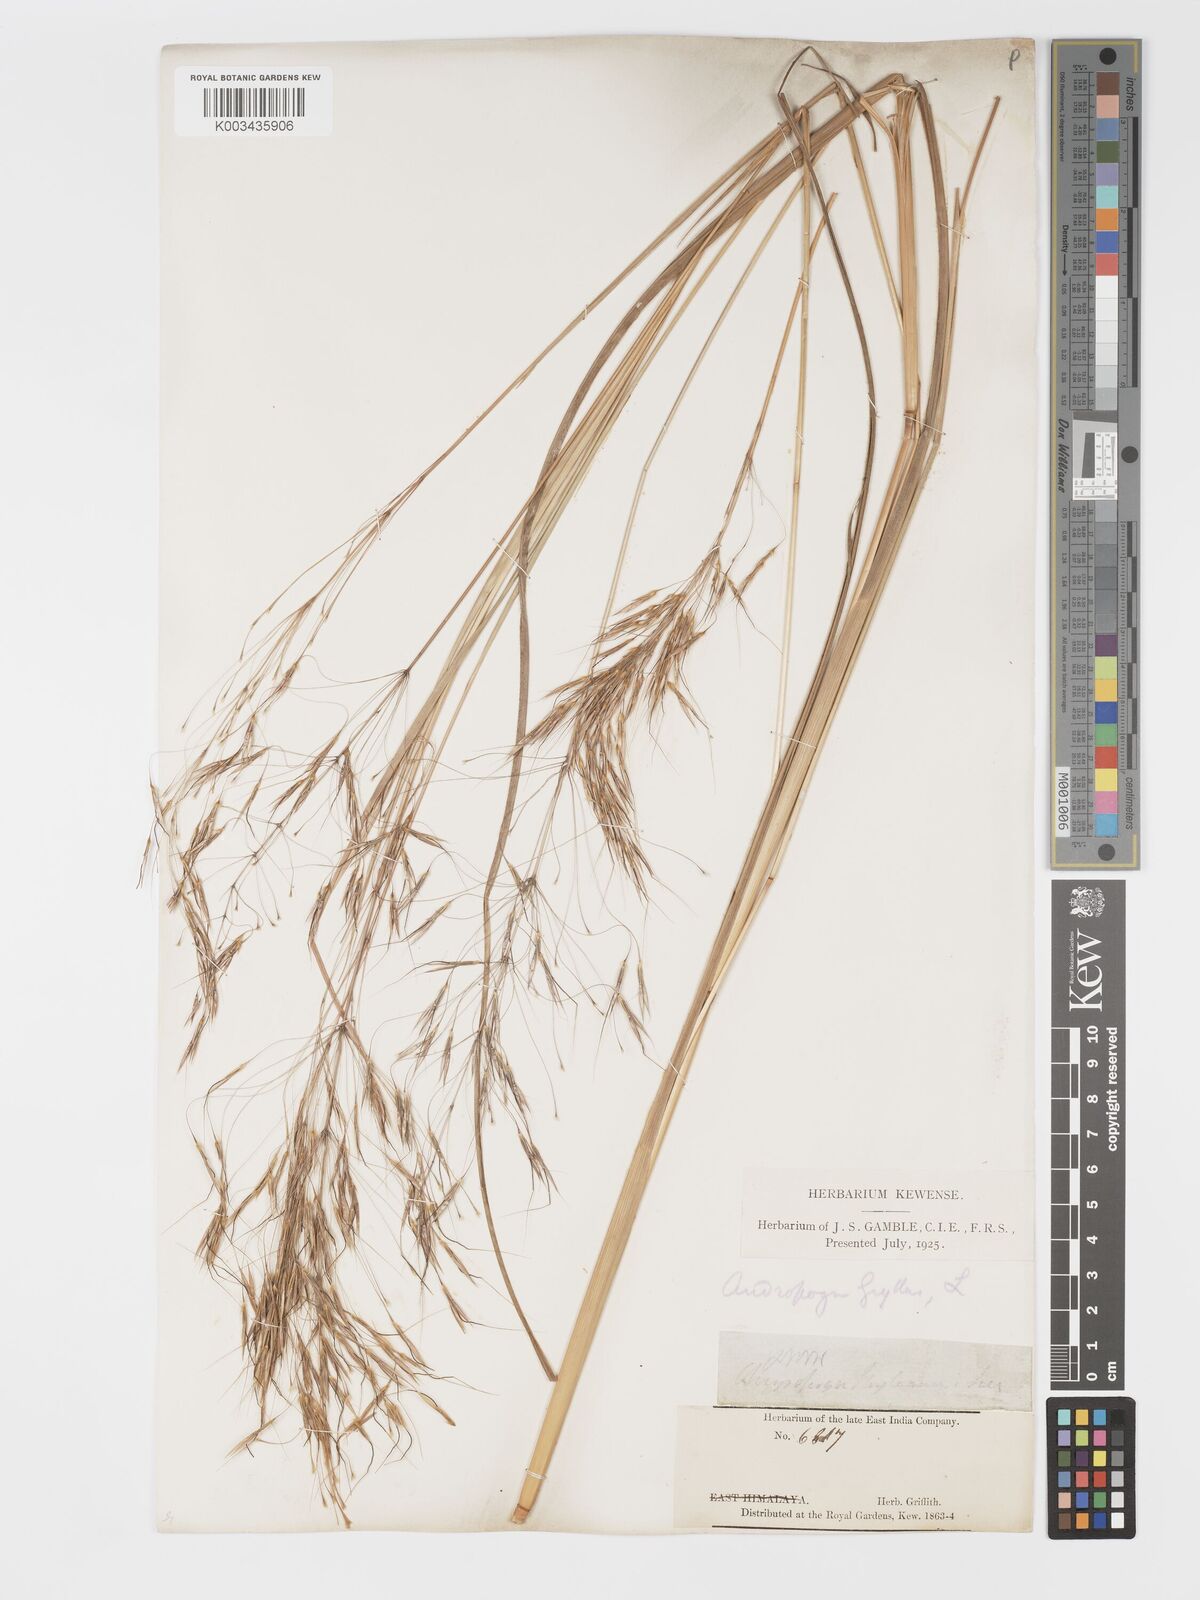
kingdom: Plantae
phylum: Tracheophyta
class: Liliopsida
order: Poales
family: Poaceae
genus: Chrysopogon
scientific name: Chrysopogon gryllus
